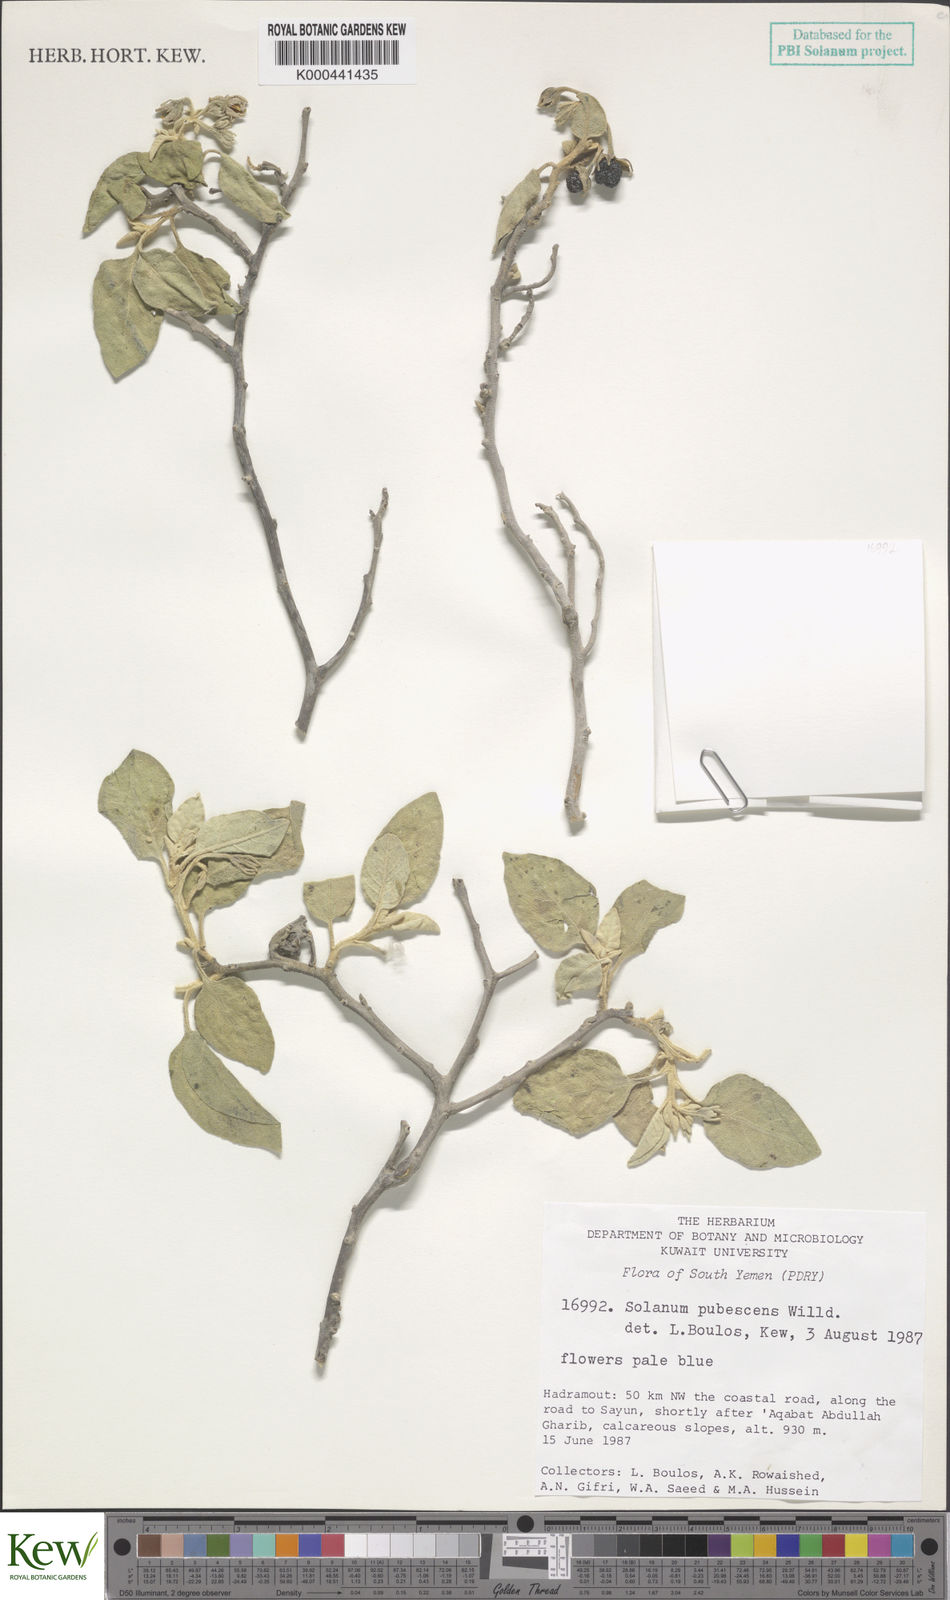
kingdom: Plantae
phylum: Tracheophyta
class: Magnoliopsida
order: Solanales
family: Solanaceae
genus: Solanum
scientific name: Solanum pubescens
